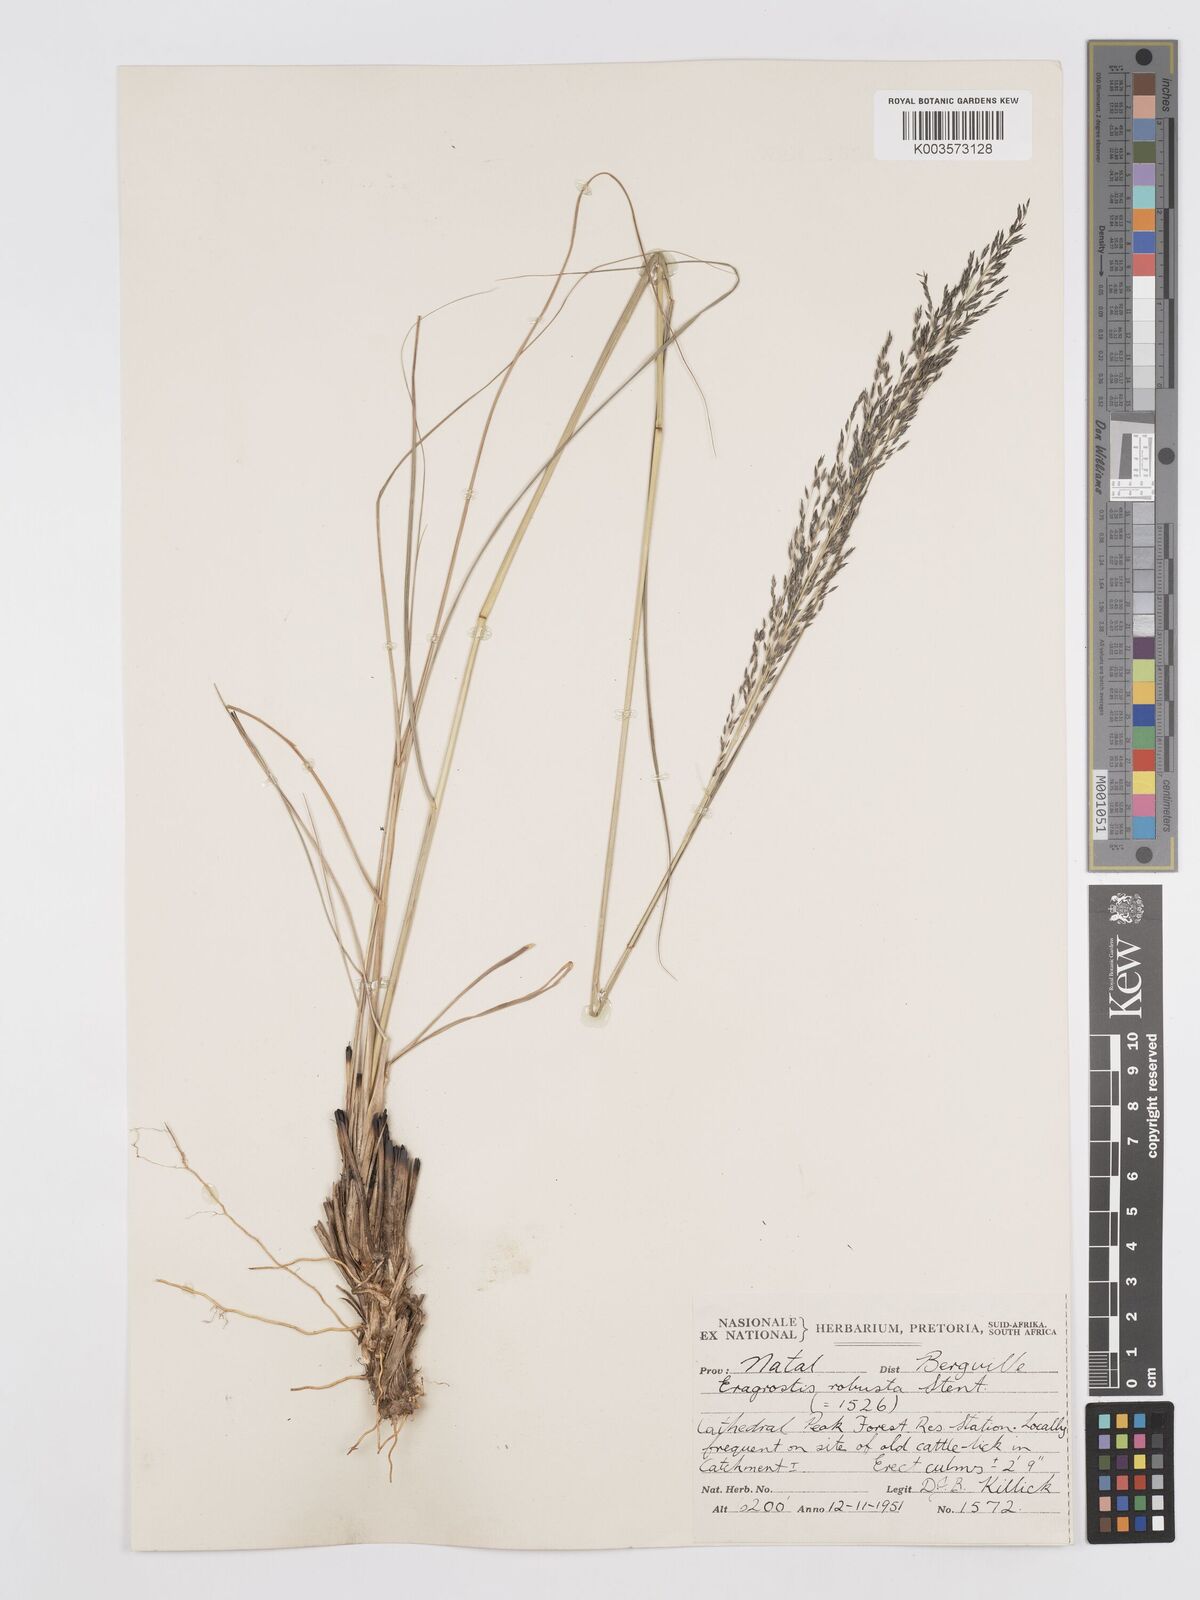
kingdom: Plantae
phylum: Tracheophyta
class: Liliopsida
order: Poales
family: Poaceae
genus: Eragrostis
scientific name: Eragrostis curvula
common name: African love-grass
